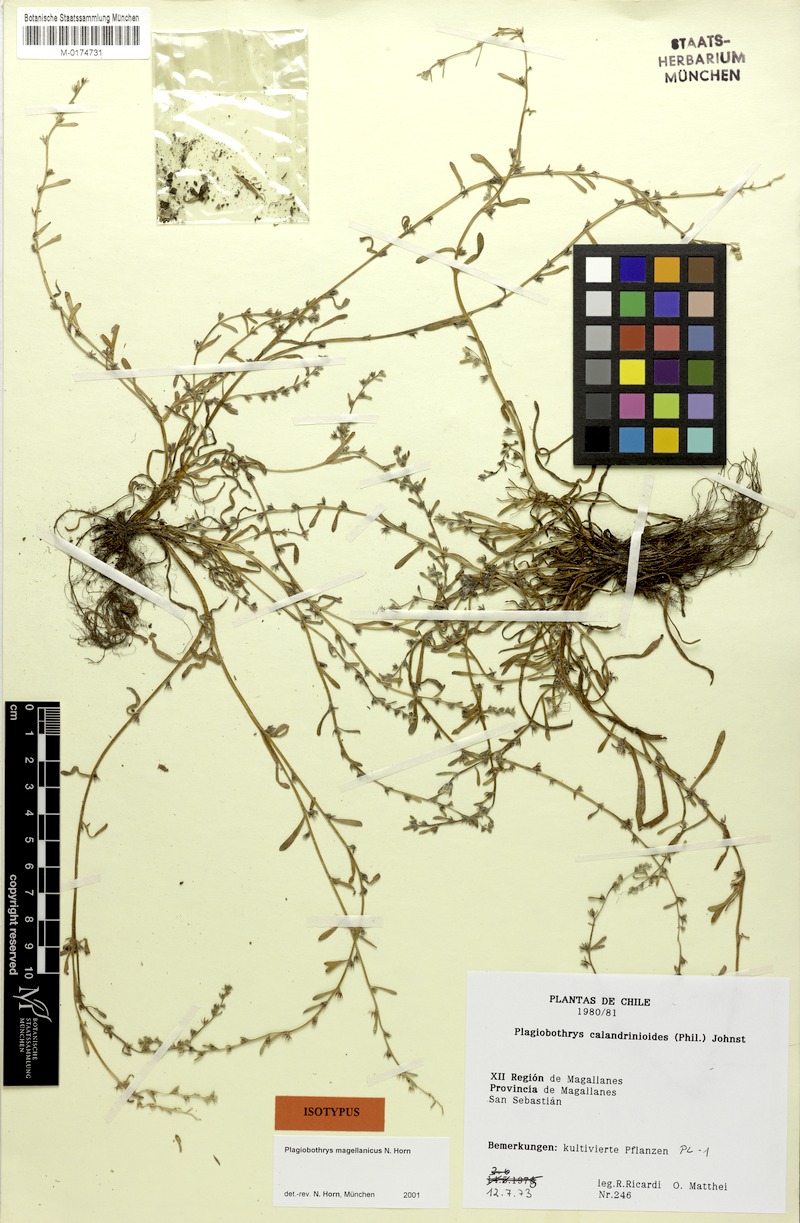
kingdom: Plantae
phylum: Tracheophyta
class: Magnoliopsida
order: Boraginales
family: Boraginaceae
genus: Plagiobothrys
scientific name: Plagiobothrys
